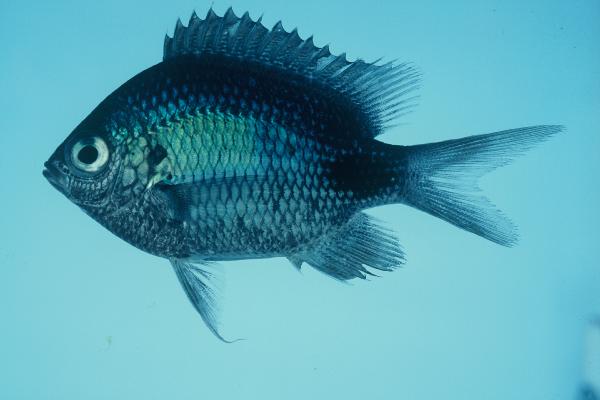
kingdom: Animalia
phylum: Chordata
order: Perciformes
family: Pomacentridae
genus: Abudefduf
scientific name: Abudefduf sparoides
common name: False-eye sergeant
